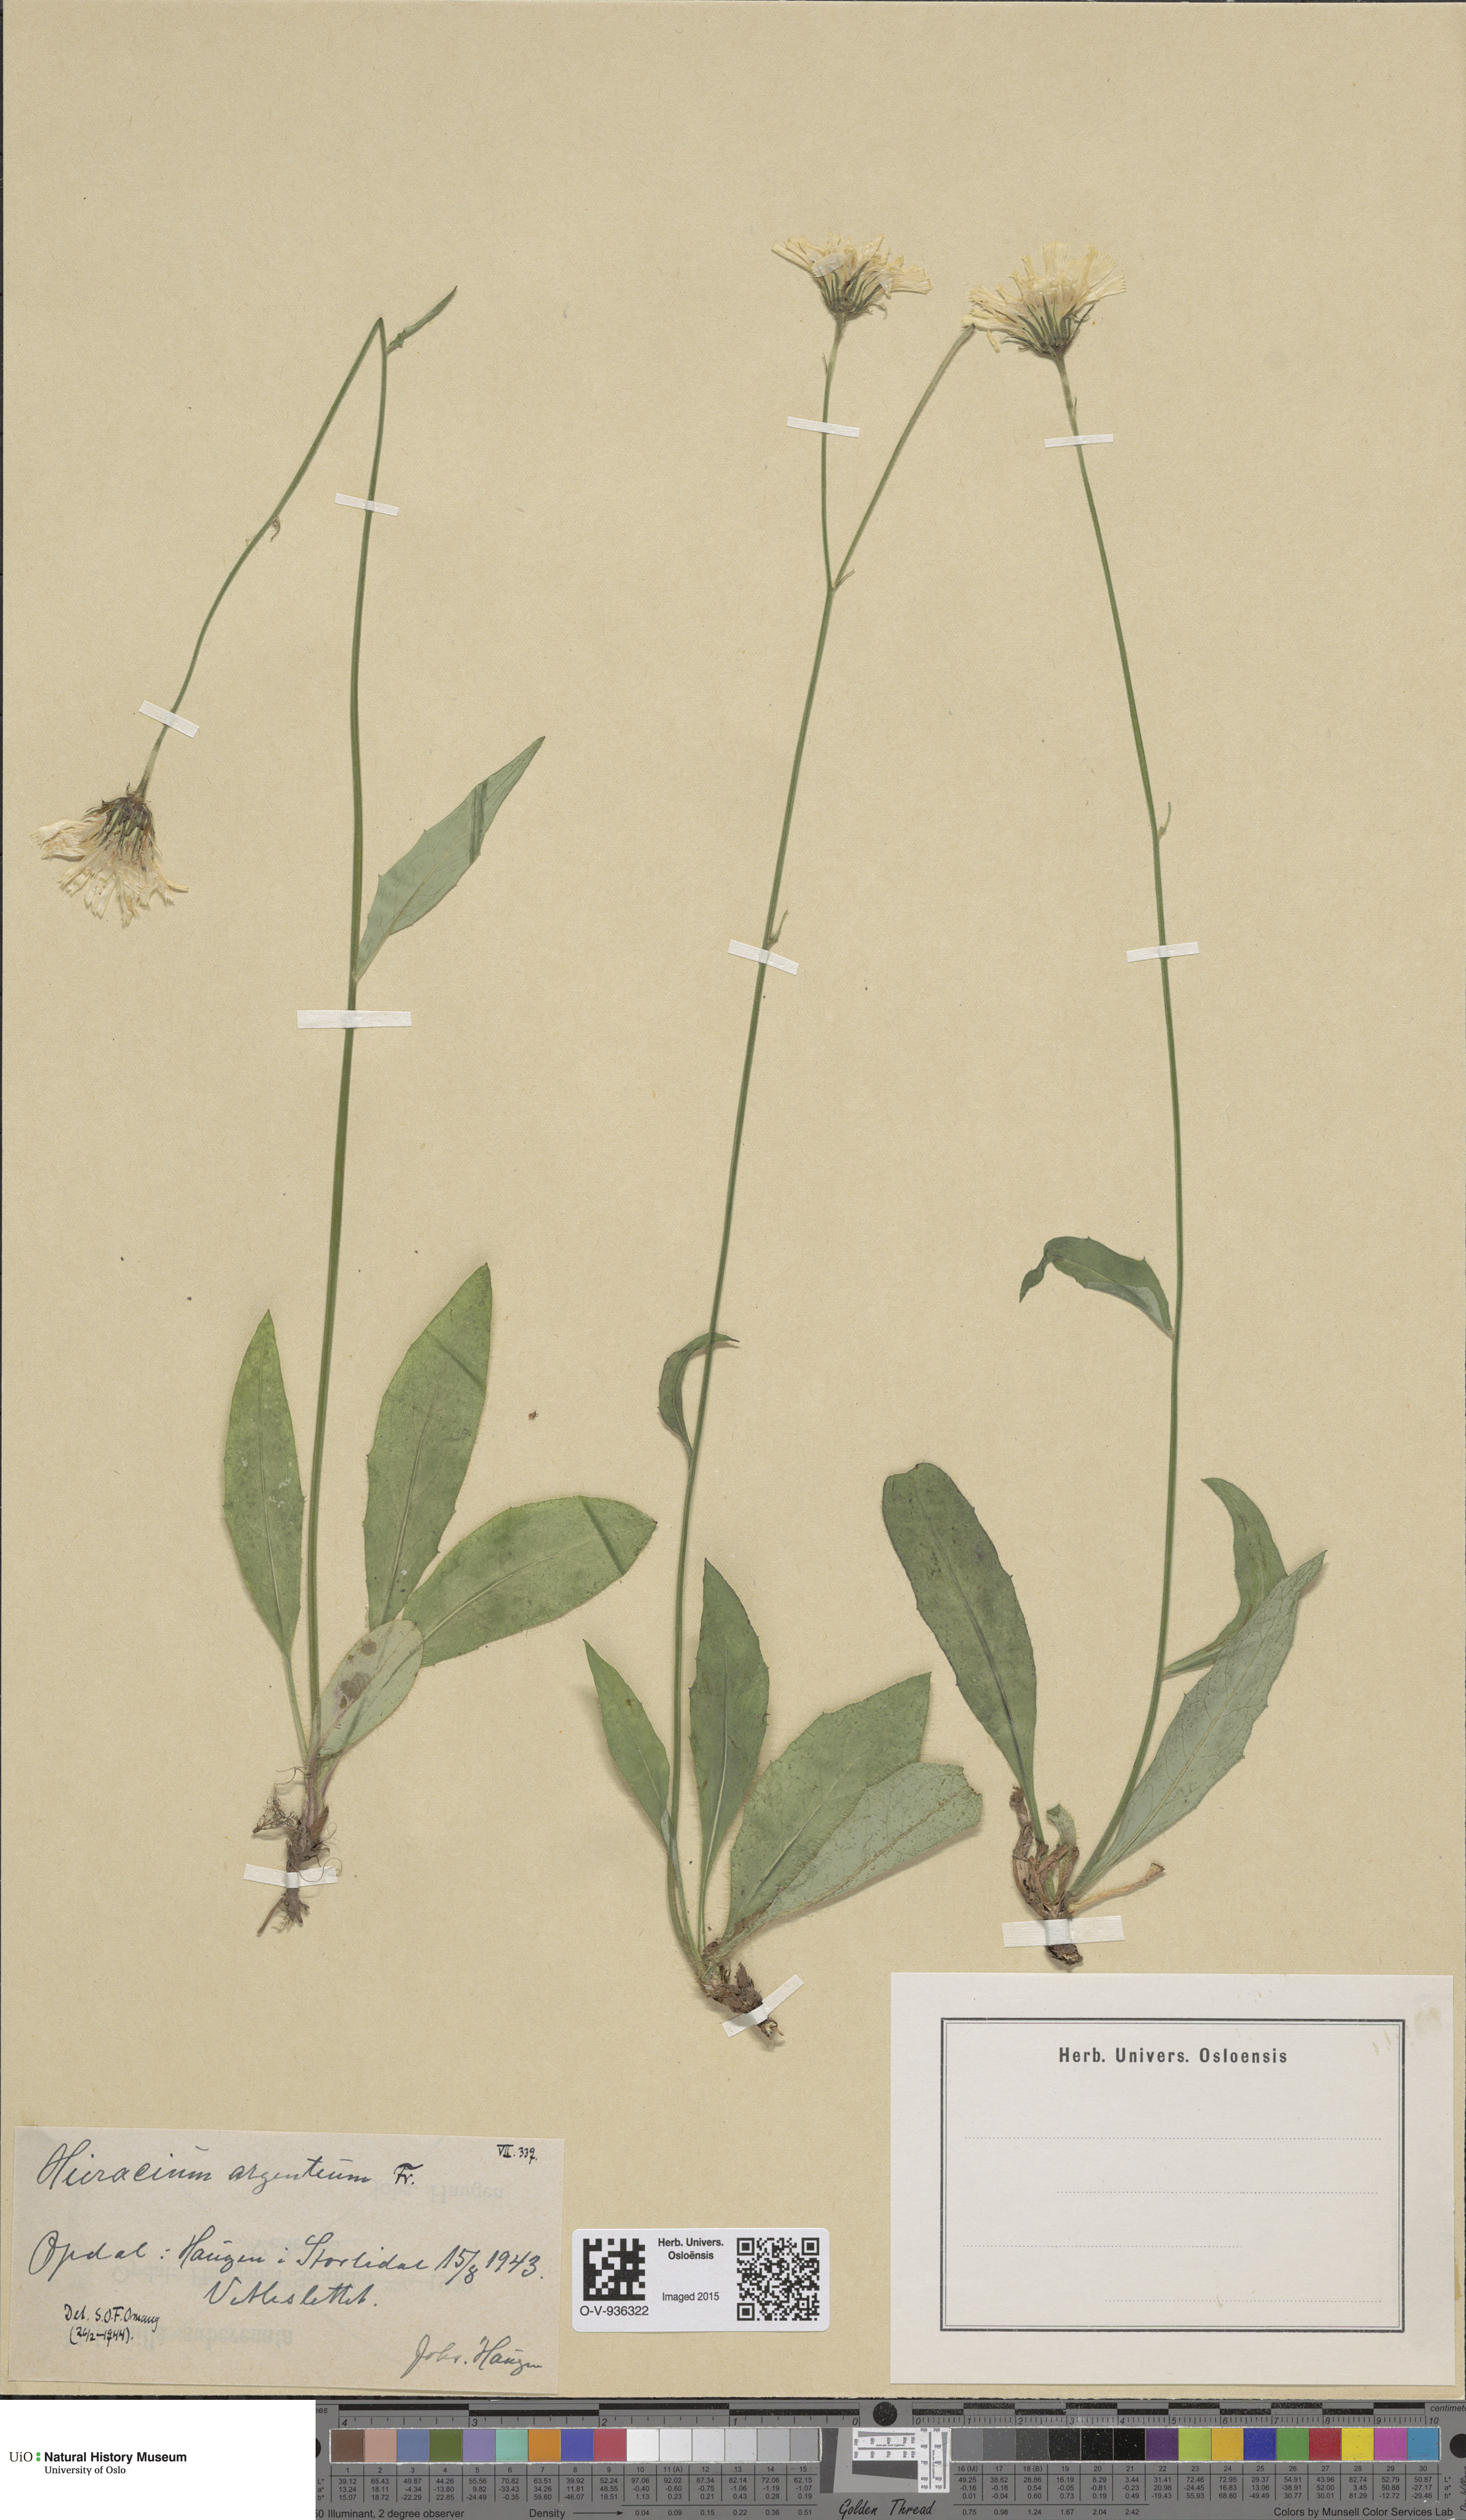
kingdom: Plantae
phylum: Tracheophyta
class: Magnoliopsida
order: Asterales
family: Asteraceae
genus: Hieracium
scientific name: Hieracium argenteum
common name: Silver hawkweed
